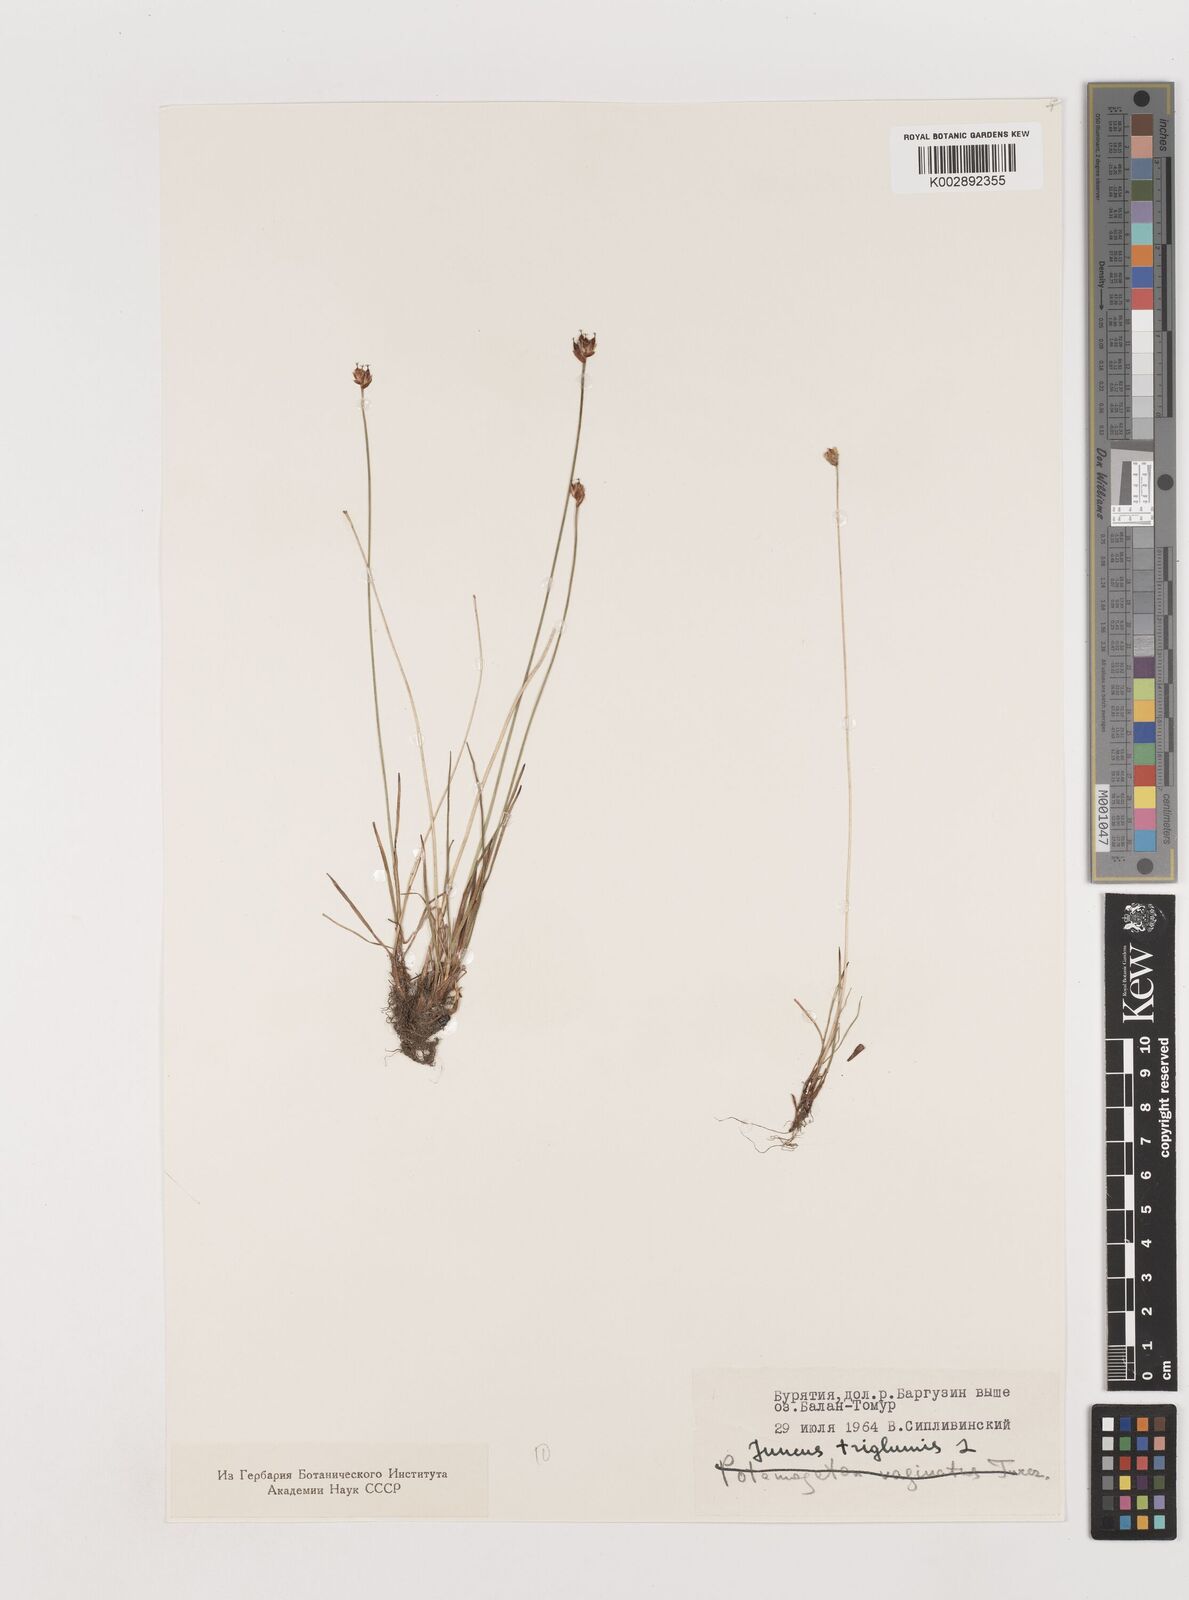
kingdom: Plantae
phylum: Tracheophyta
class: Liliopsida
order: Poales
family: Juncaceae
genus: Juncus
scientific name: Juncus triglumis
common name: Three-flowered rush
